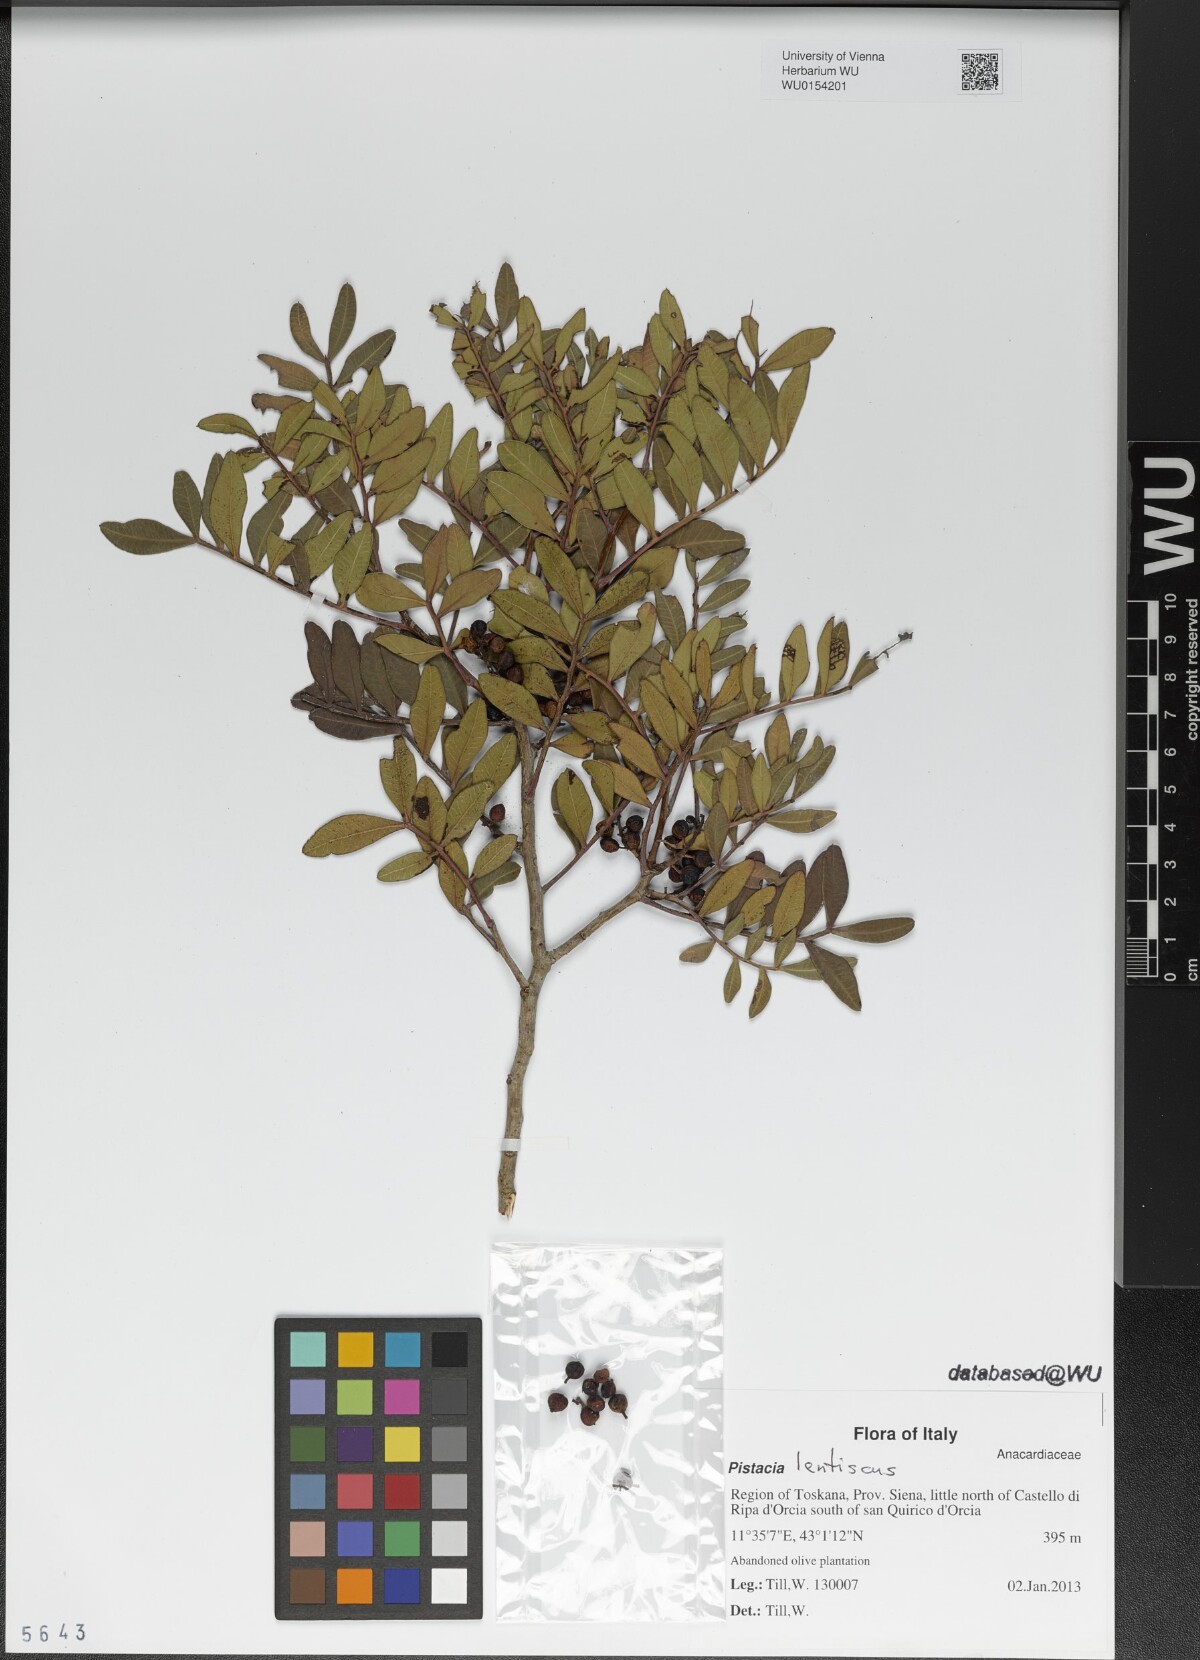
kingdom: Plantae
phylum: Tracheophyta
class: Magnoliopsida
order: Sapindales
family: Anacardiaceae
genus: Pistacia
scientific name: Pistacia lentiscus
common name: Lentisk
